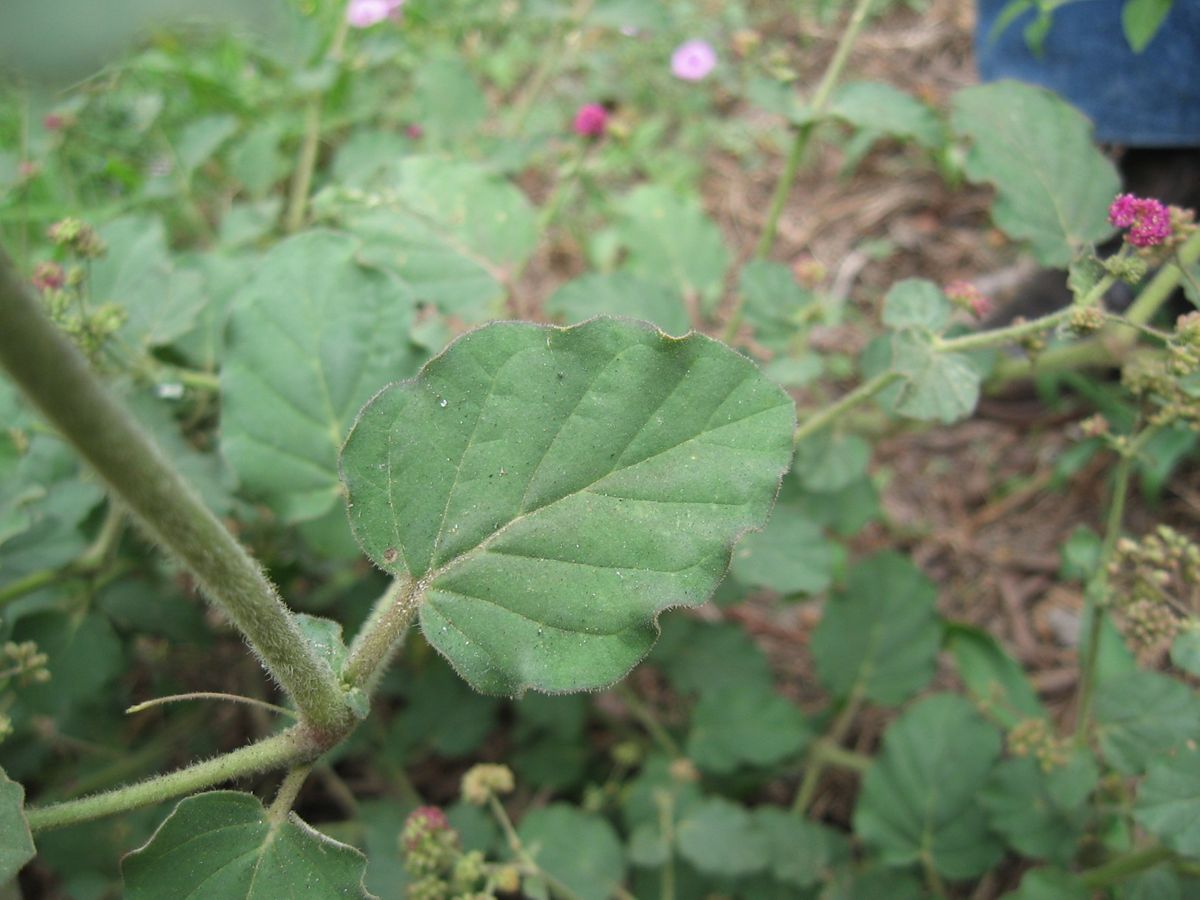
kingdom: Plantae
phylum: Tracheophyta
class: Magnoliopsida
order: Caryophyllales
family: Nyctaginaceae
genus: Boerhavia
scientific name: Boerhavia coccinea
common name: Scarlet spiderling
